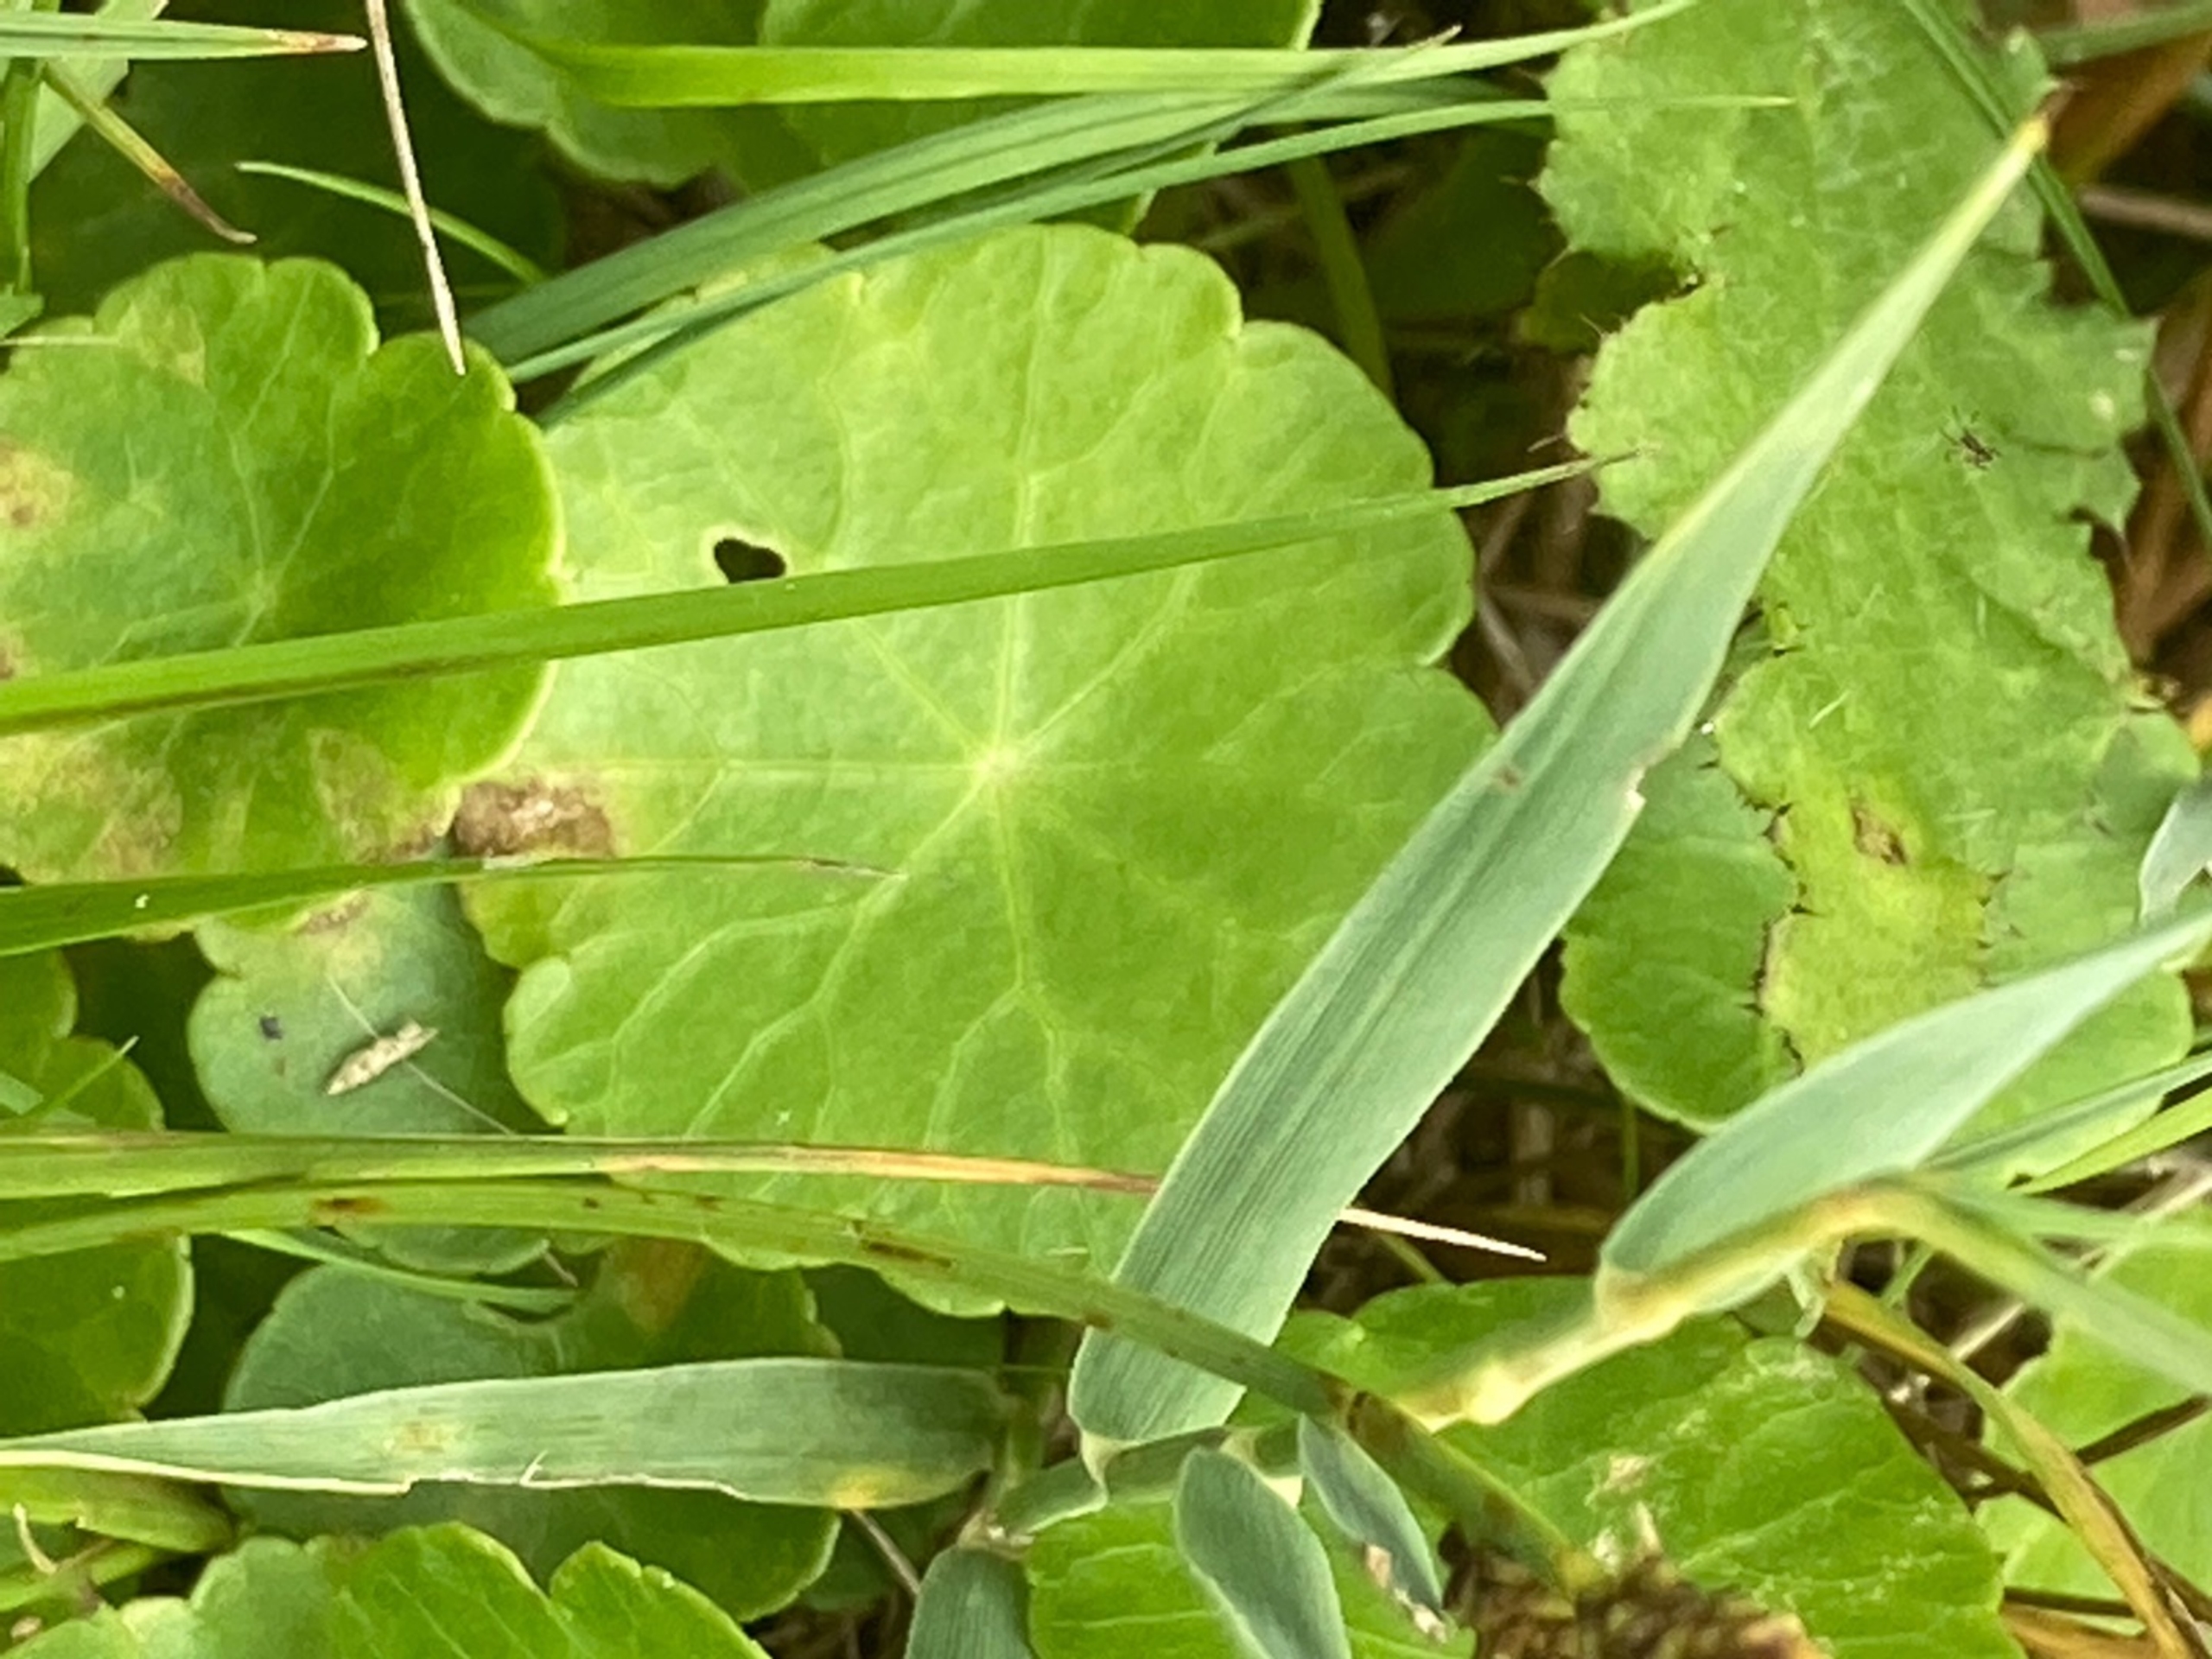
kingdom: Plantae
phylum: Tracheophyta
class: Magnoliopsida
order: Apiales
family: Araliaceae
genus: Hydrocotyle
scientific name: Hydrocotyle vulgaris
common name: Vandnavle
